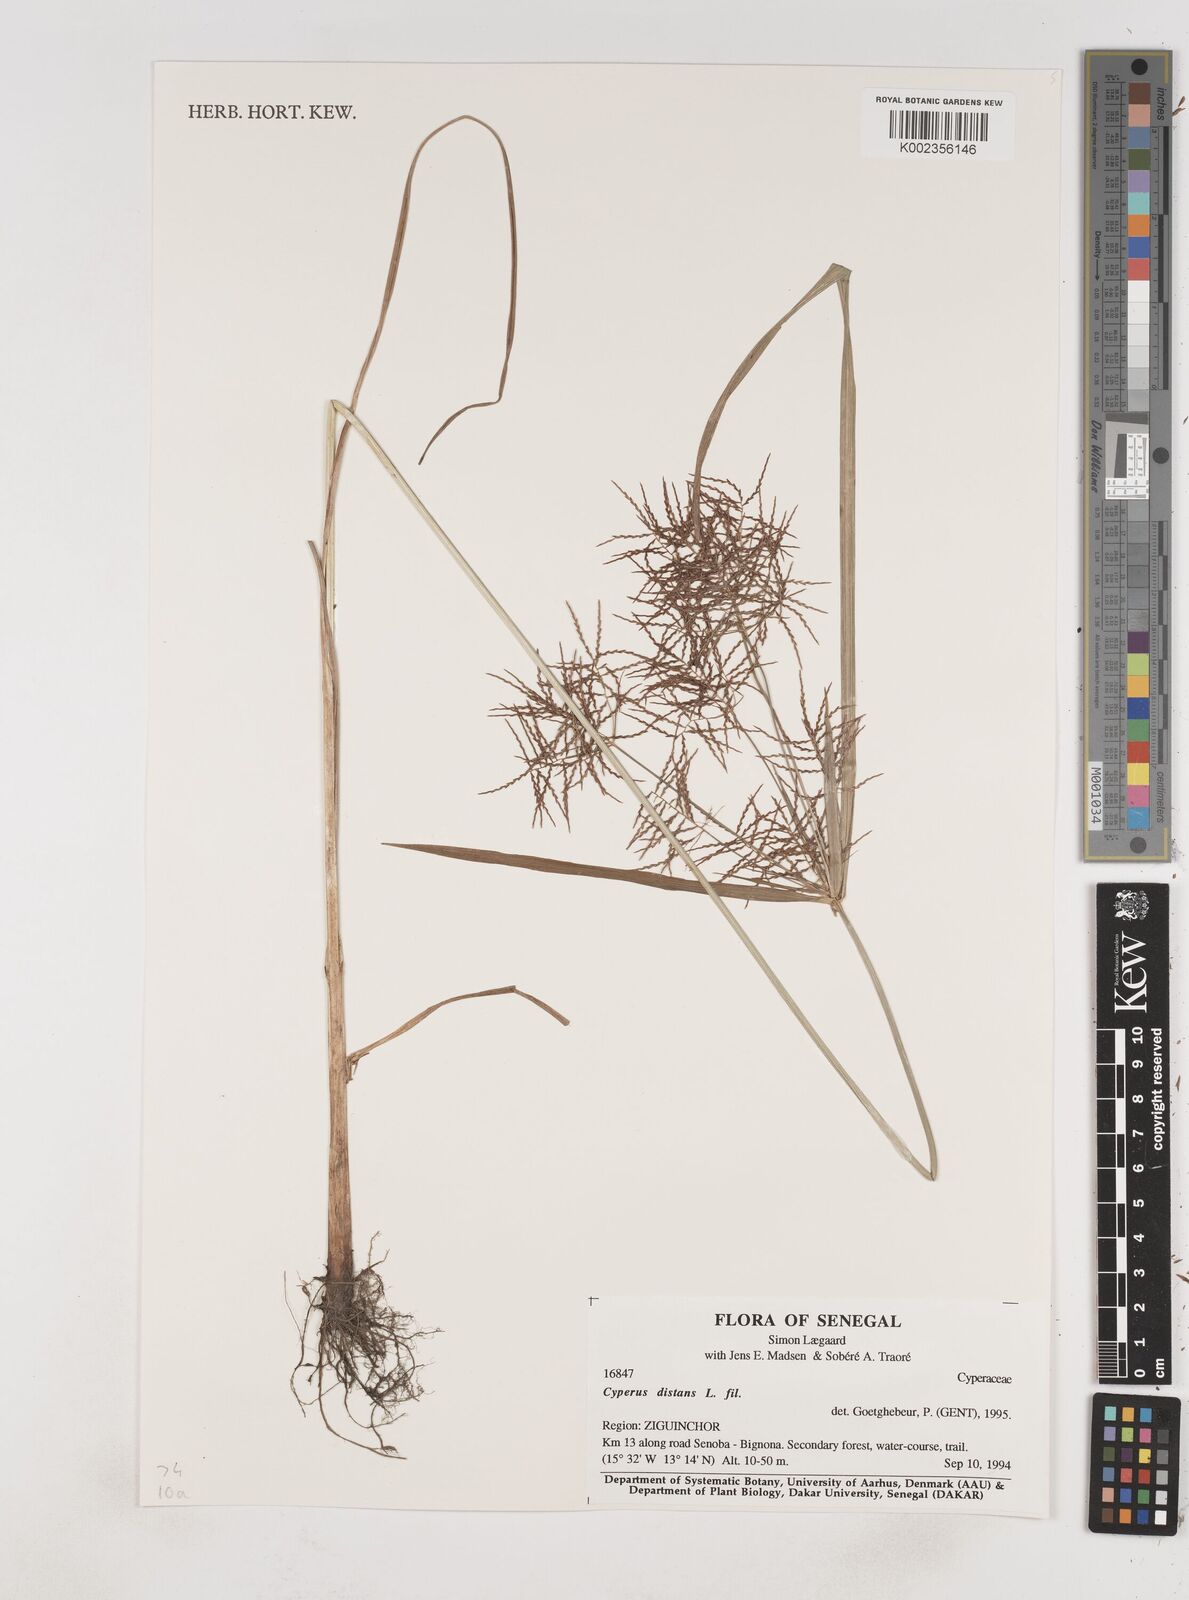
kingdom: Plantae
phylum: Tracheophyta
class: Liliopsida
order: Poales
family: Cyperaceae
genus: Cyperus
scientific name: Cyperus distans
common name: Slender cyperus
